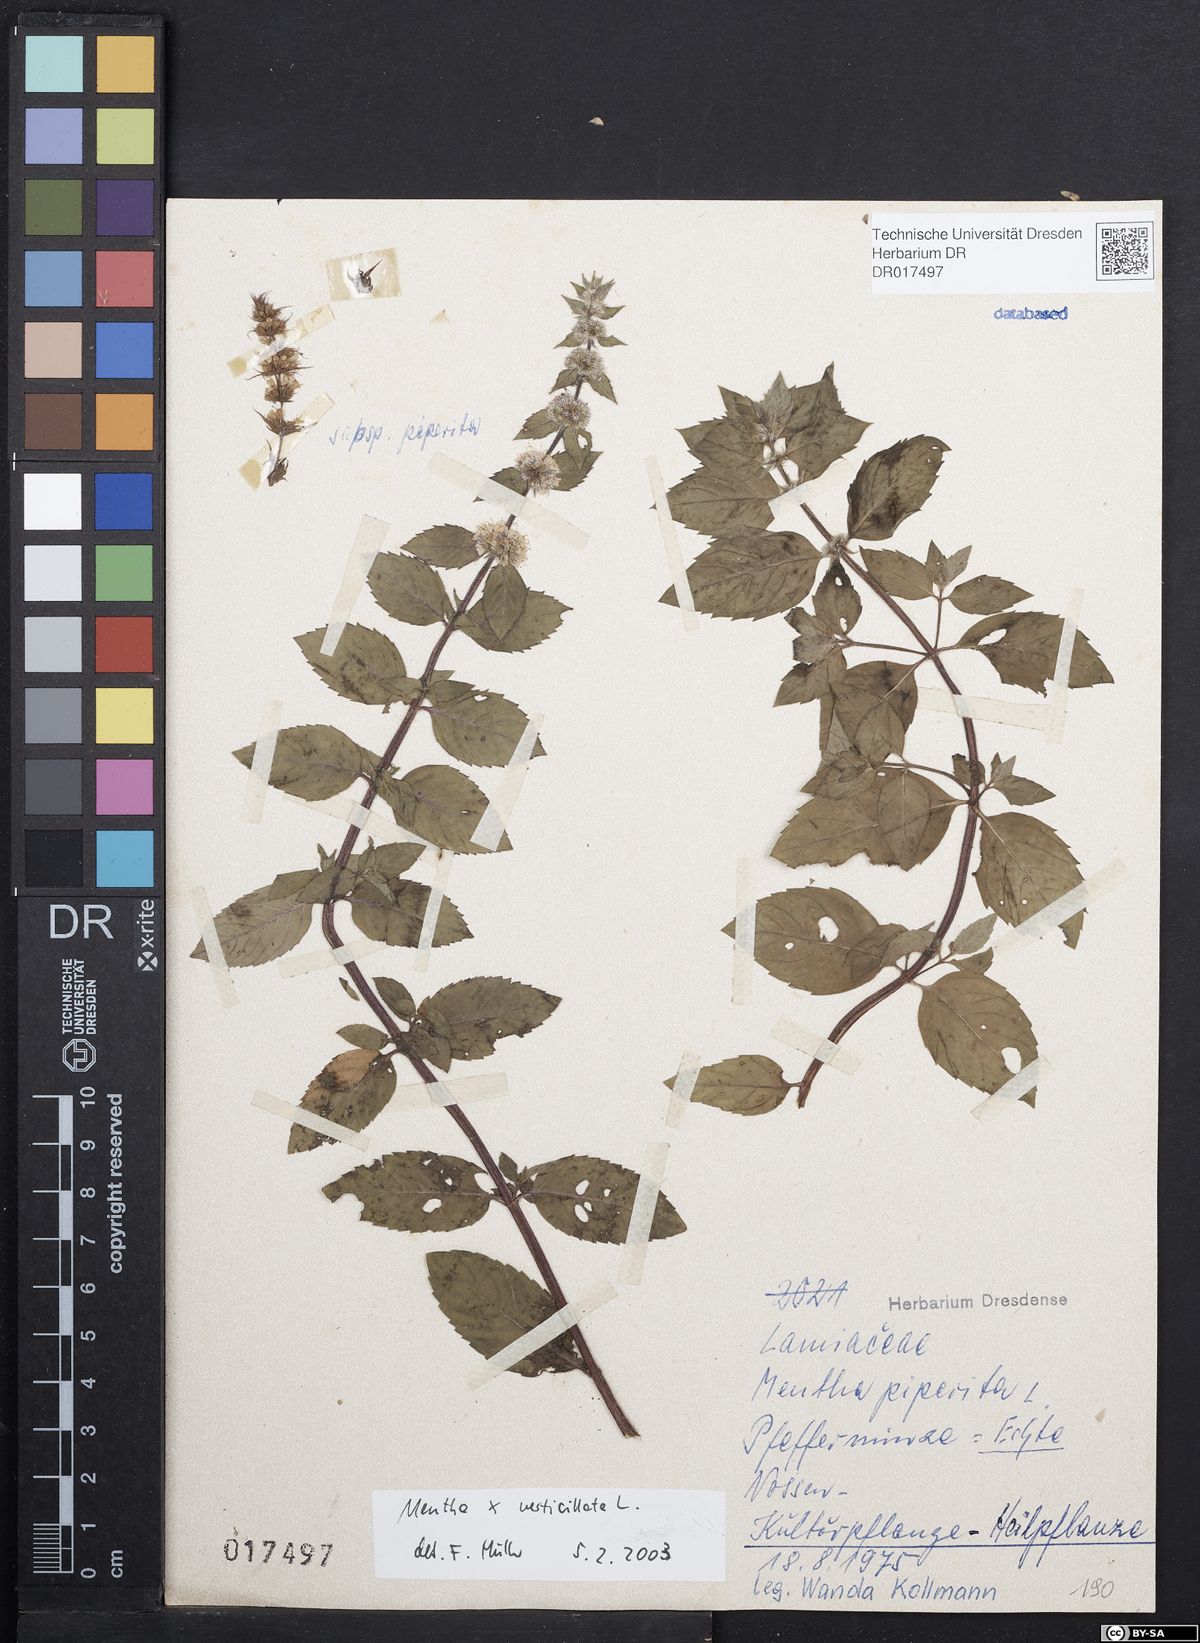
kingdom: Plantae
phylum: Tracheophyta
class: Magnoliopsida
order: Lamiales
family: Lamiaceae
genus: Mentha
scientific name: Mentha verticillata
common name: Mint
